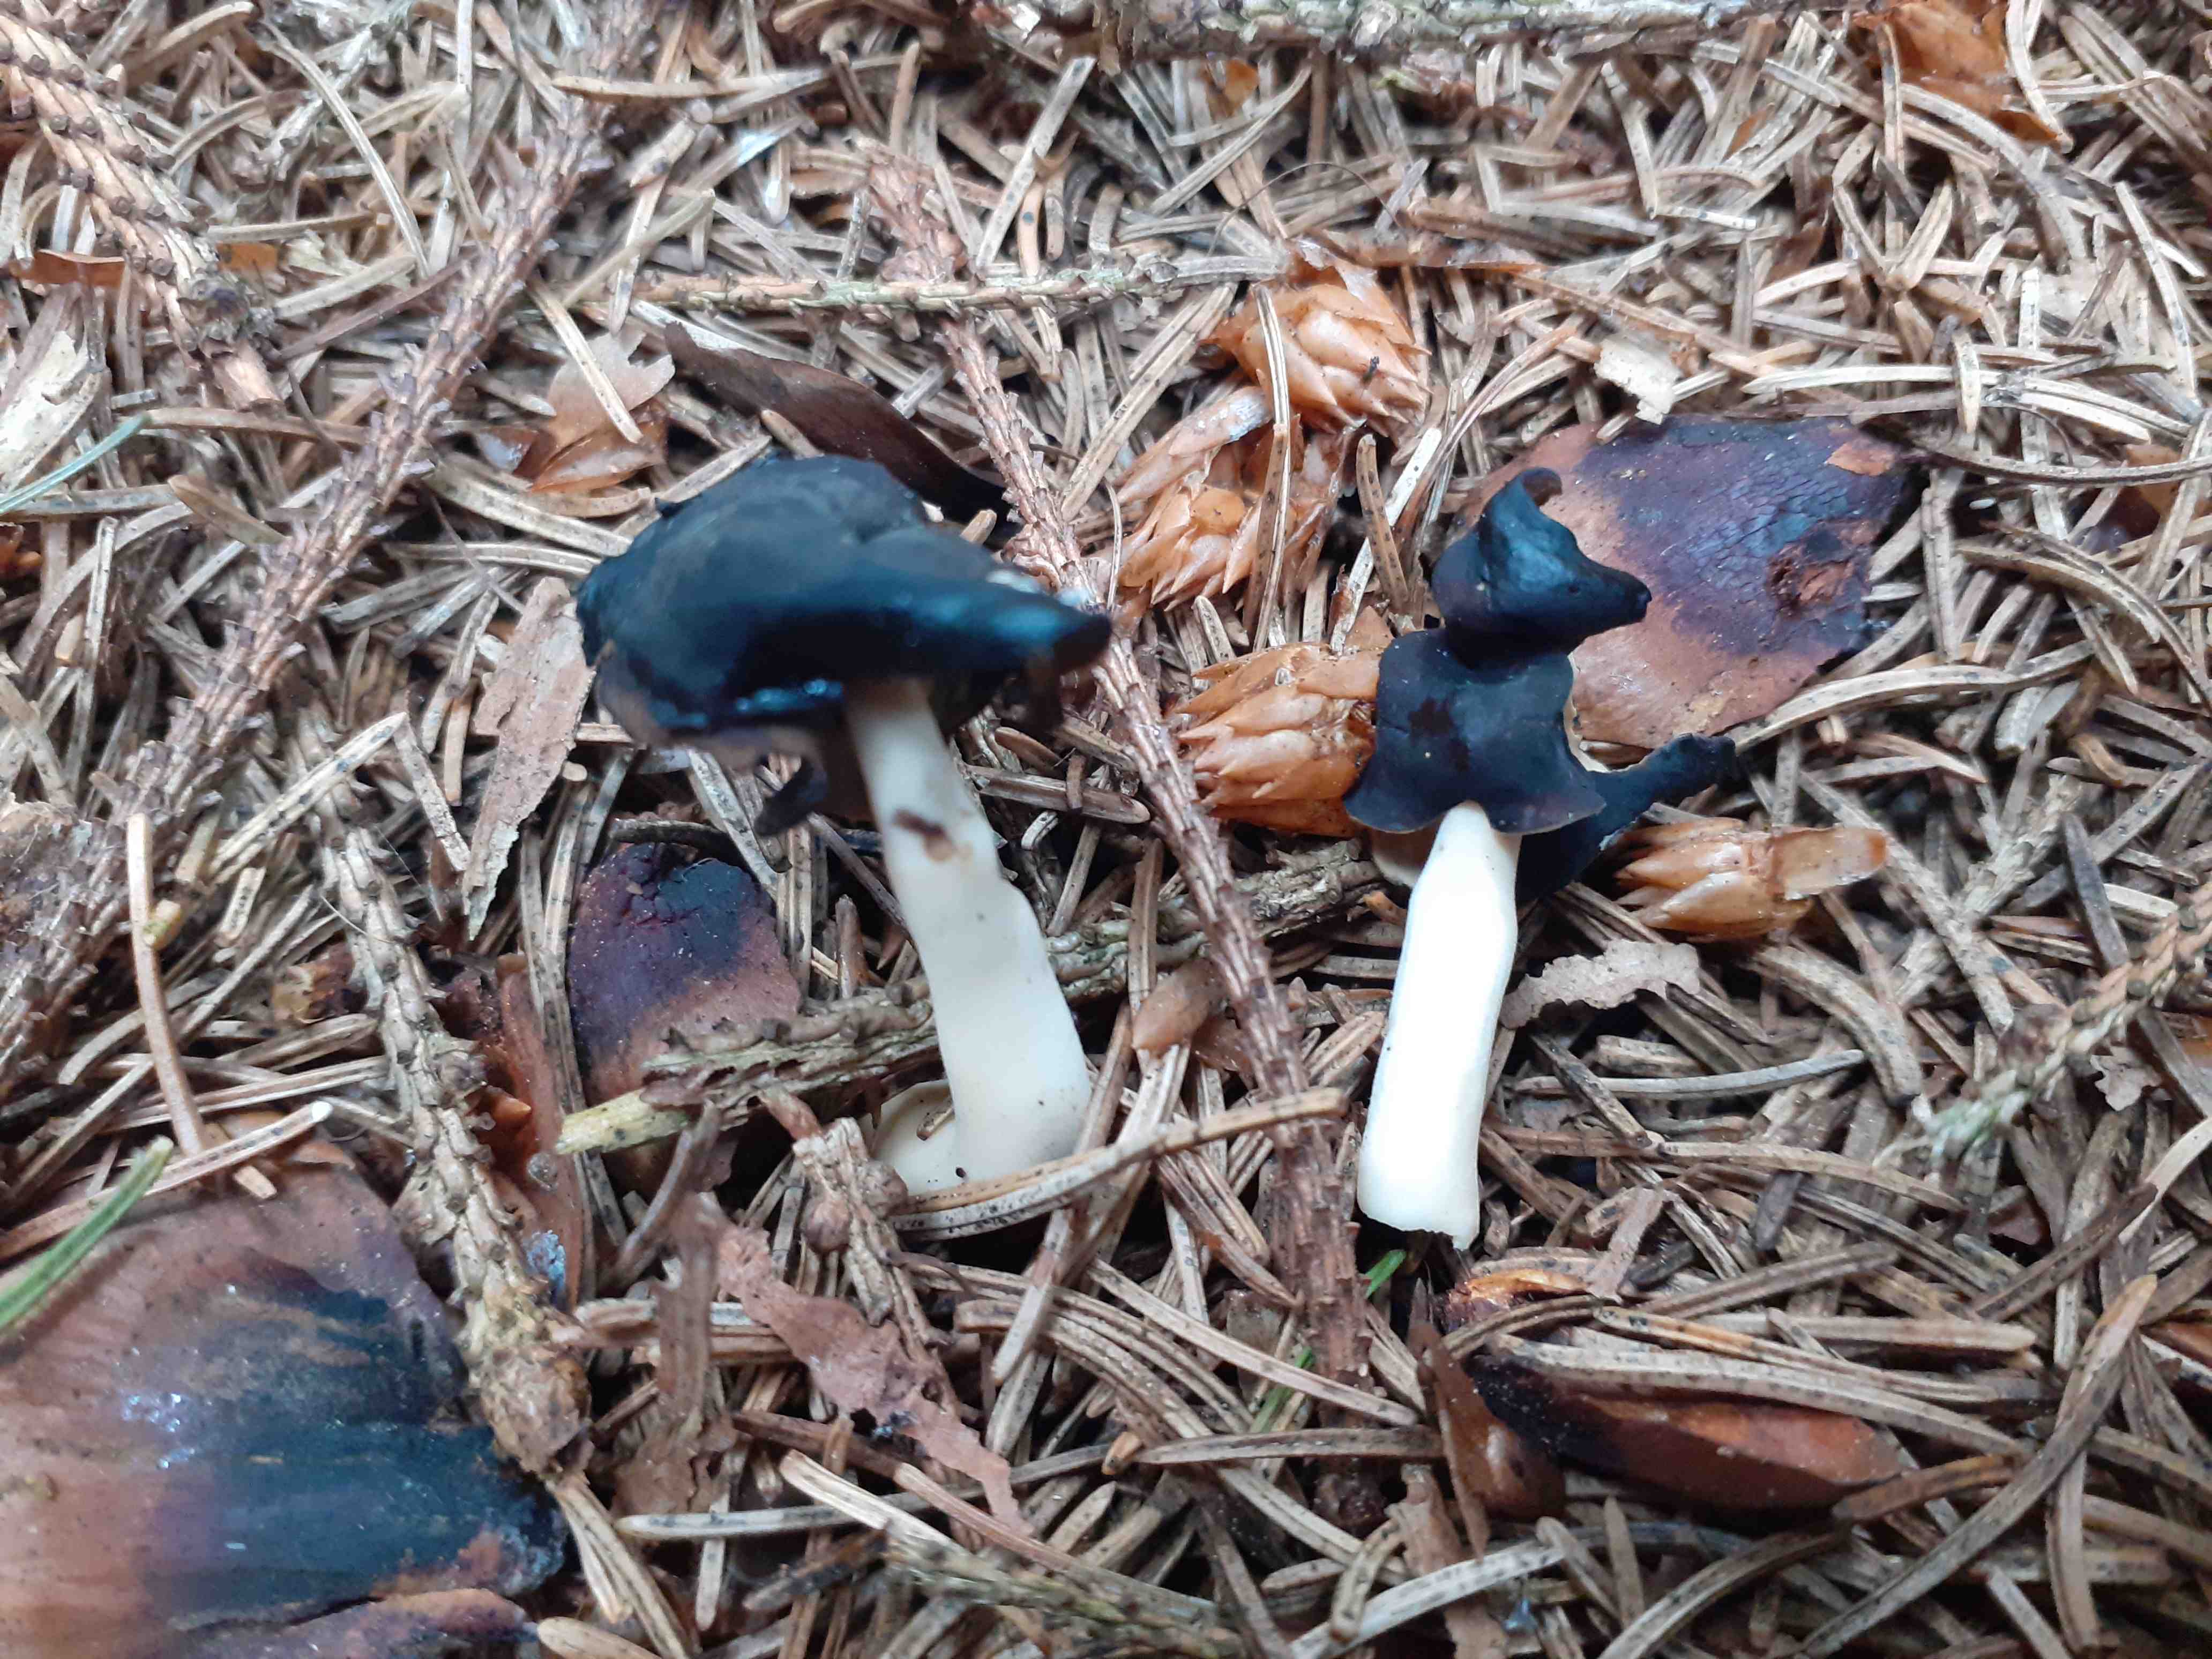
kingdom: Fungi
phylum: Ascomycota
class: Pezizomycetes
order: Pezizales
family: Helvellaceae
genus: Helvella
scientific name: Helvella
